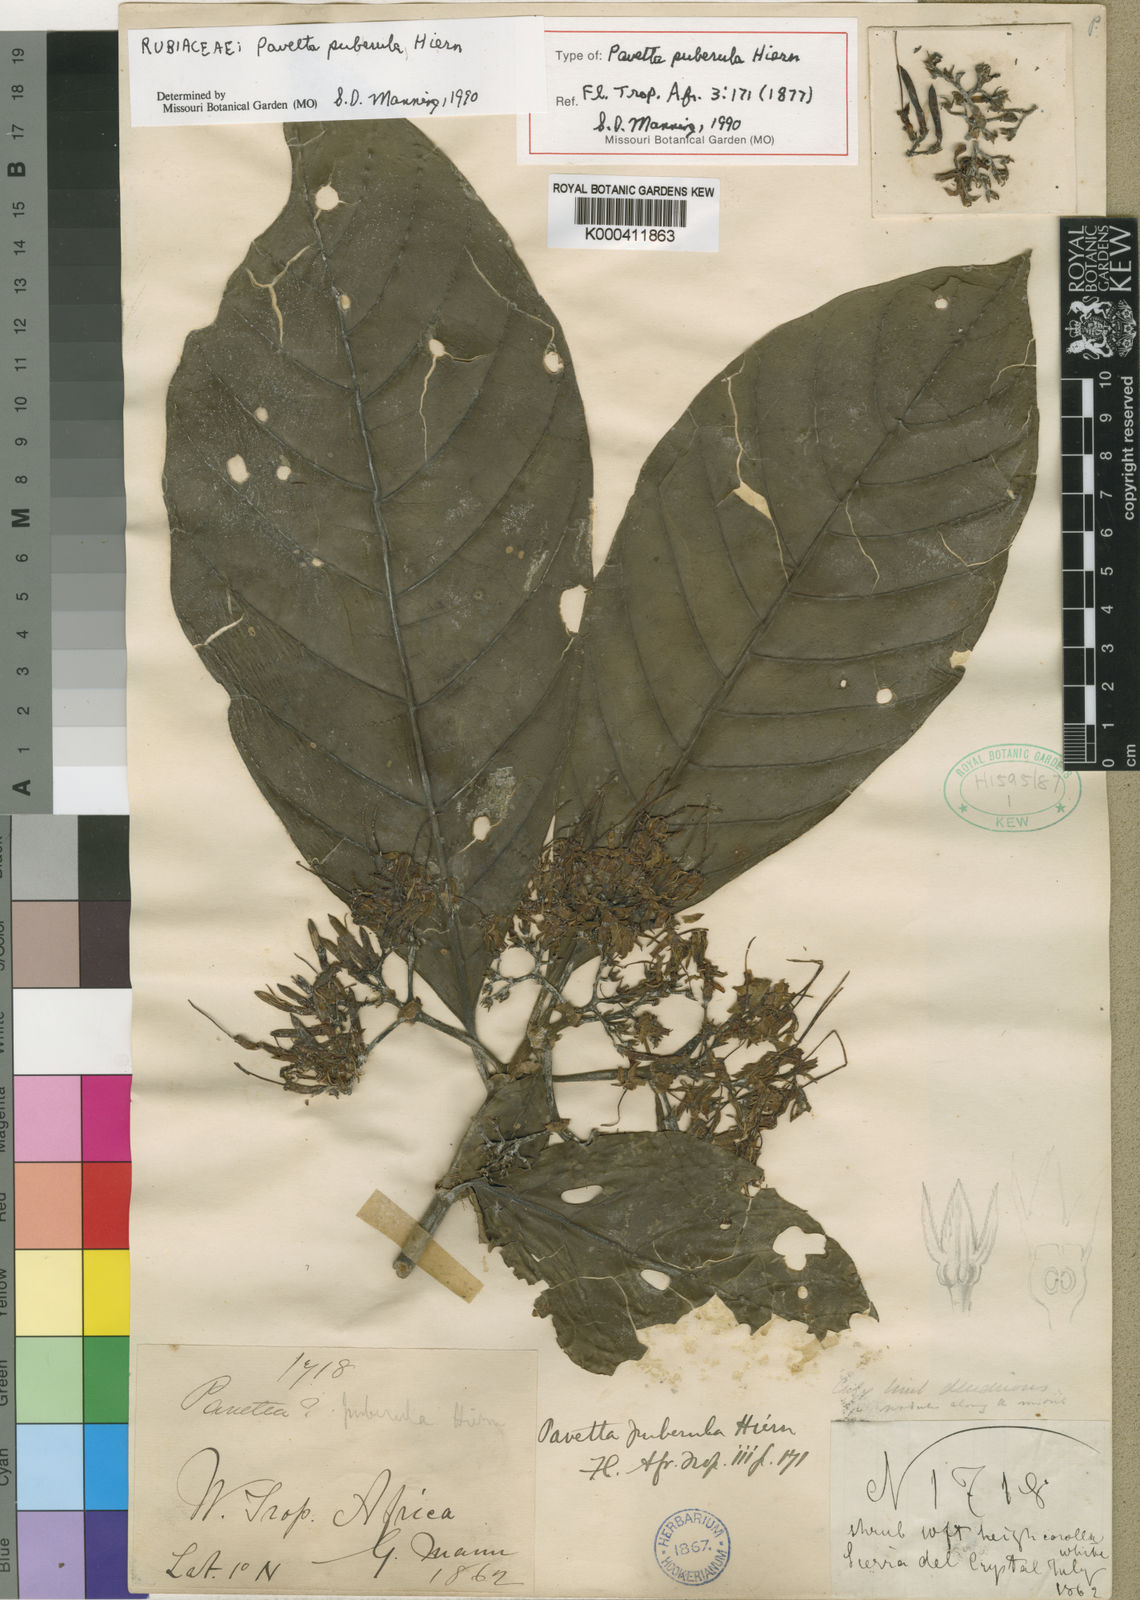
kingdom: Plantae
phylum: Tracheophyta
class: Magnoliopsida
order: Gentianales
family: Rubiaceae
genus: Pavetta
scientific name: Pavetta puberula
